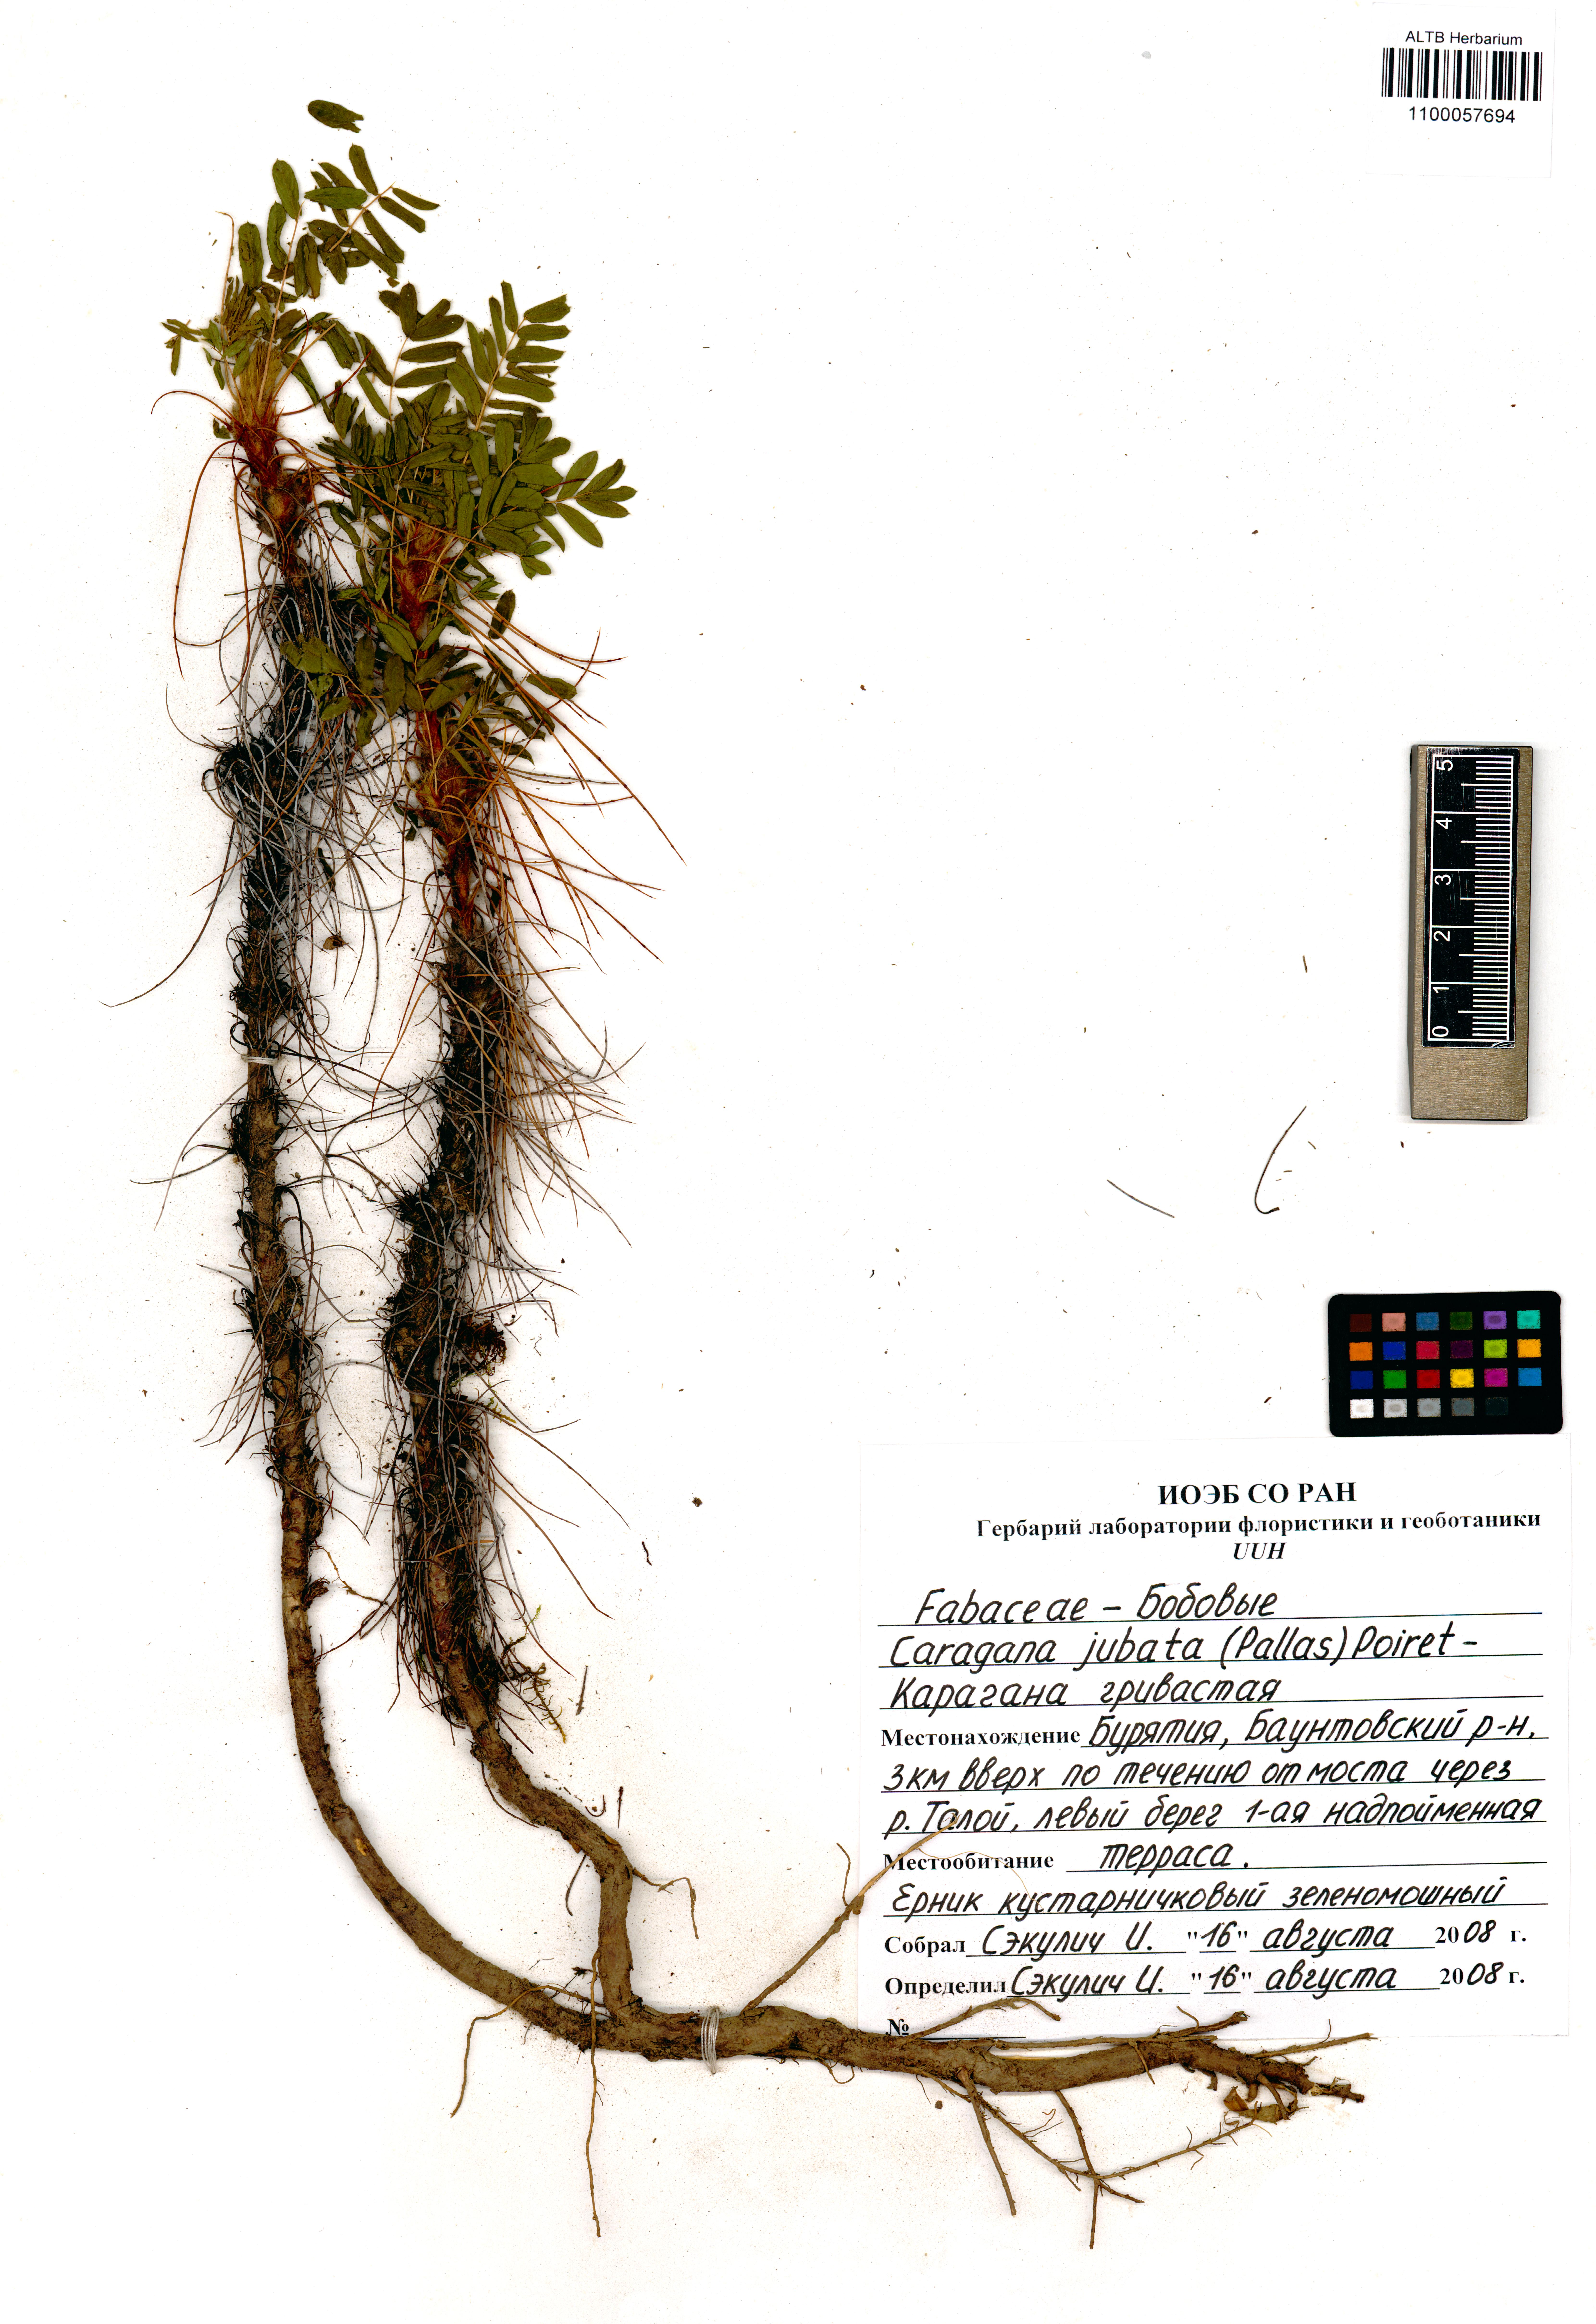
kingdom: Plantae
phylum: Tracheophyta
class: Magnoliopsida
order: Fabales
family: Fabaceae
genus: Caragana
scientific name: Caragana jubata
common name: Shag-spine peashrub
